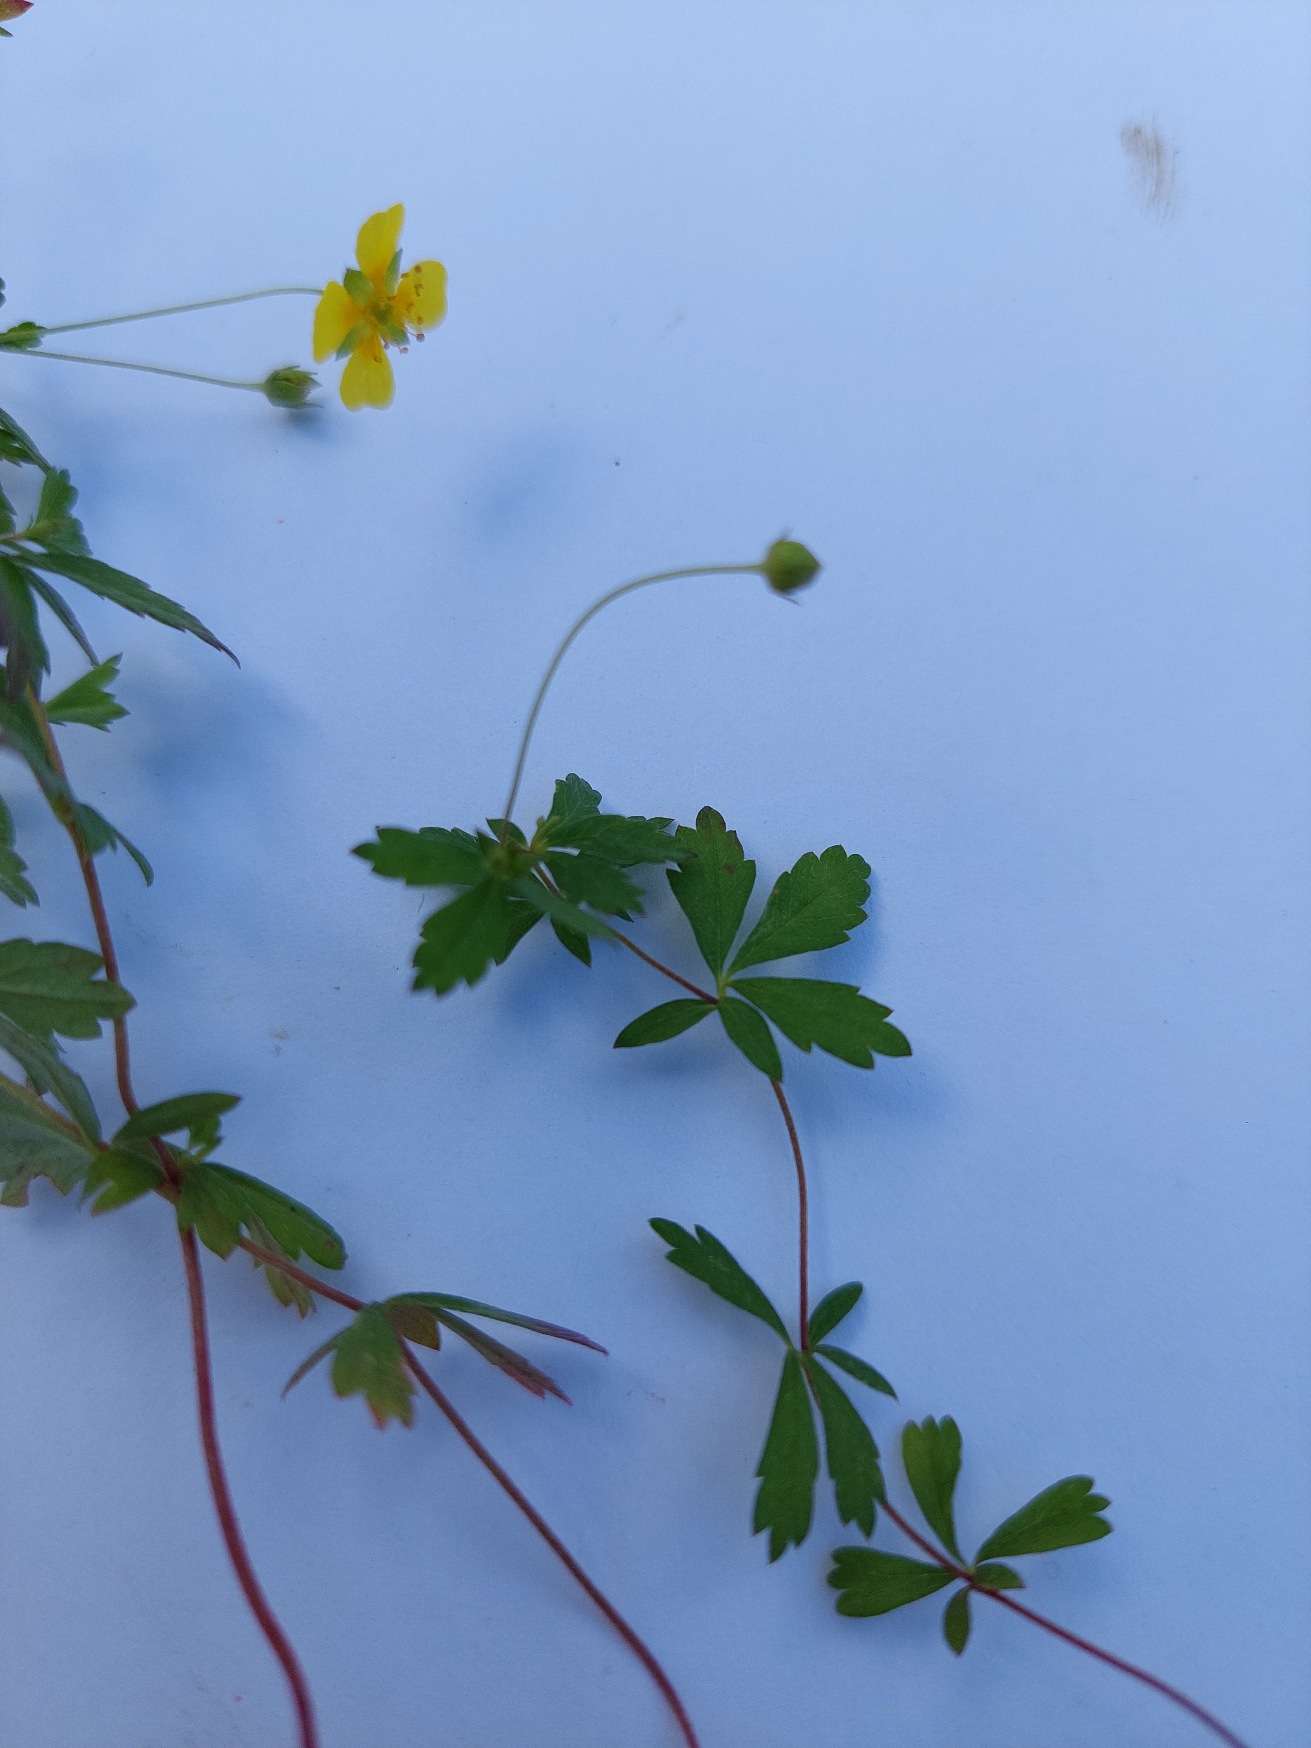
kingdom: Plantae
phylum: Tracheophyta
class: Magnoliopsida
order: Rosales
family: Rosaceae
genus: Potentilla
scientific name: Potentilla erecta
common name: Tormentil
